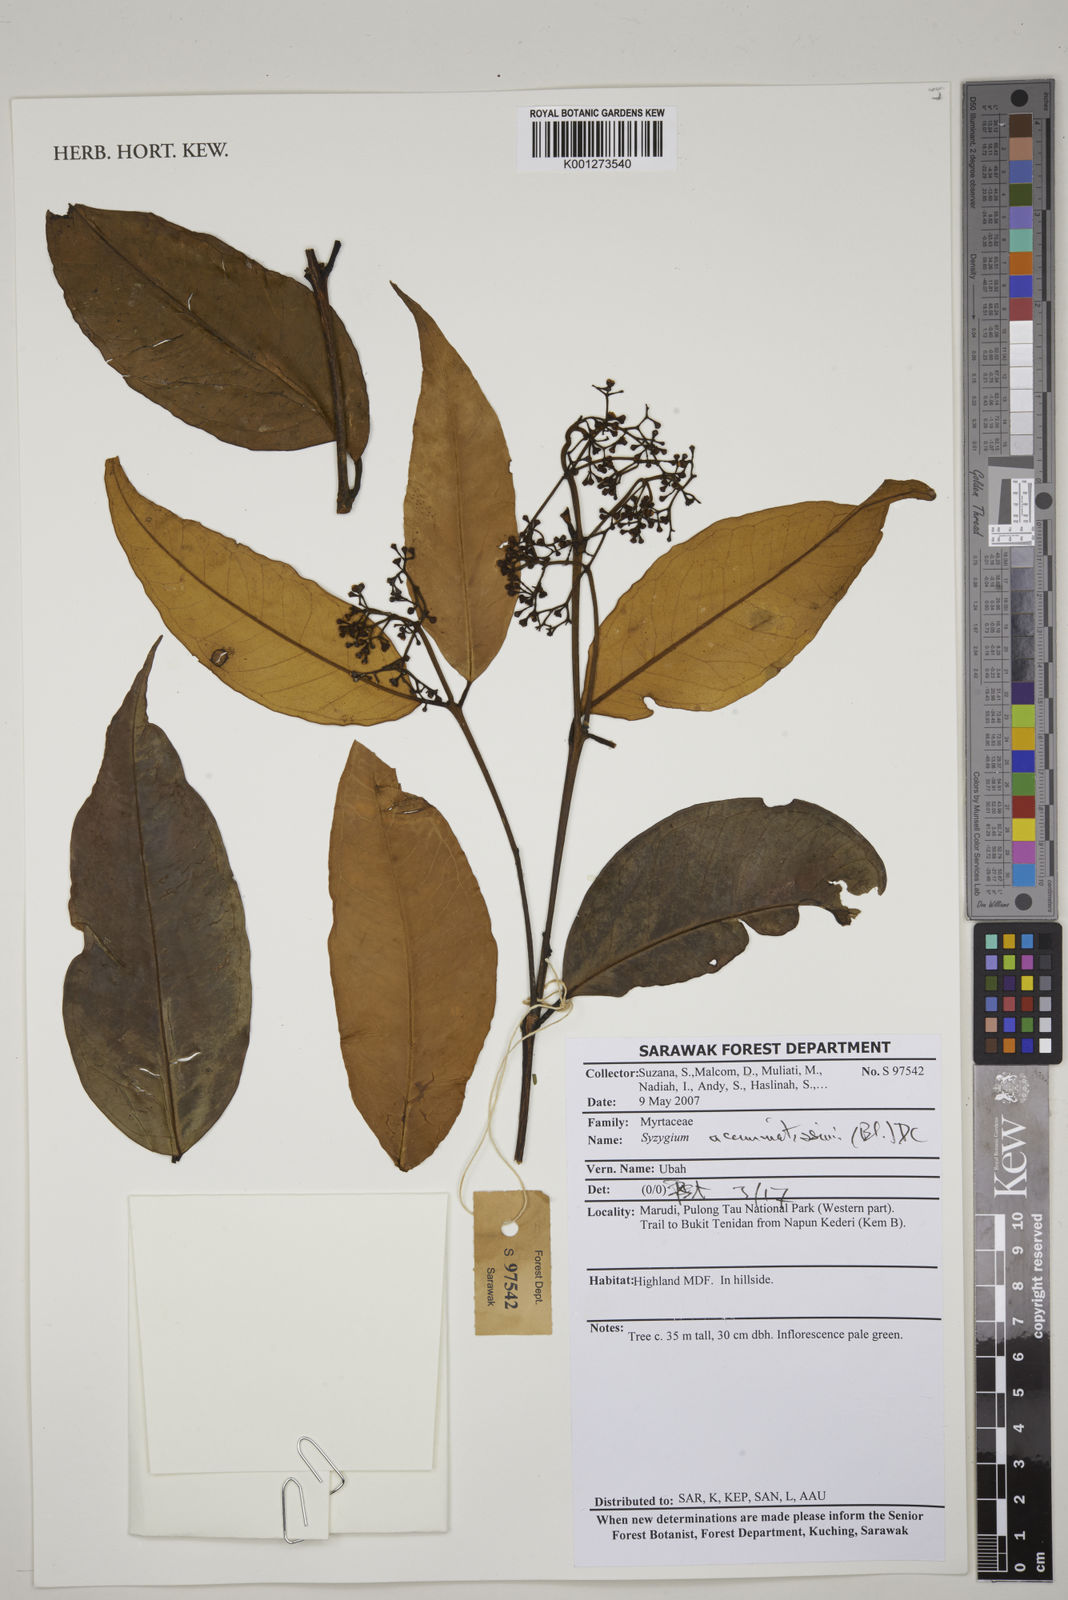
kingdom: Plantae
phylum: Tracheophyta
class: Magnoliopsida
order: Myrtales
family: Myrtaceae
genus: Syzygium
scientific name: Syzygium acuminatissimum
